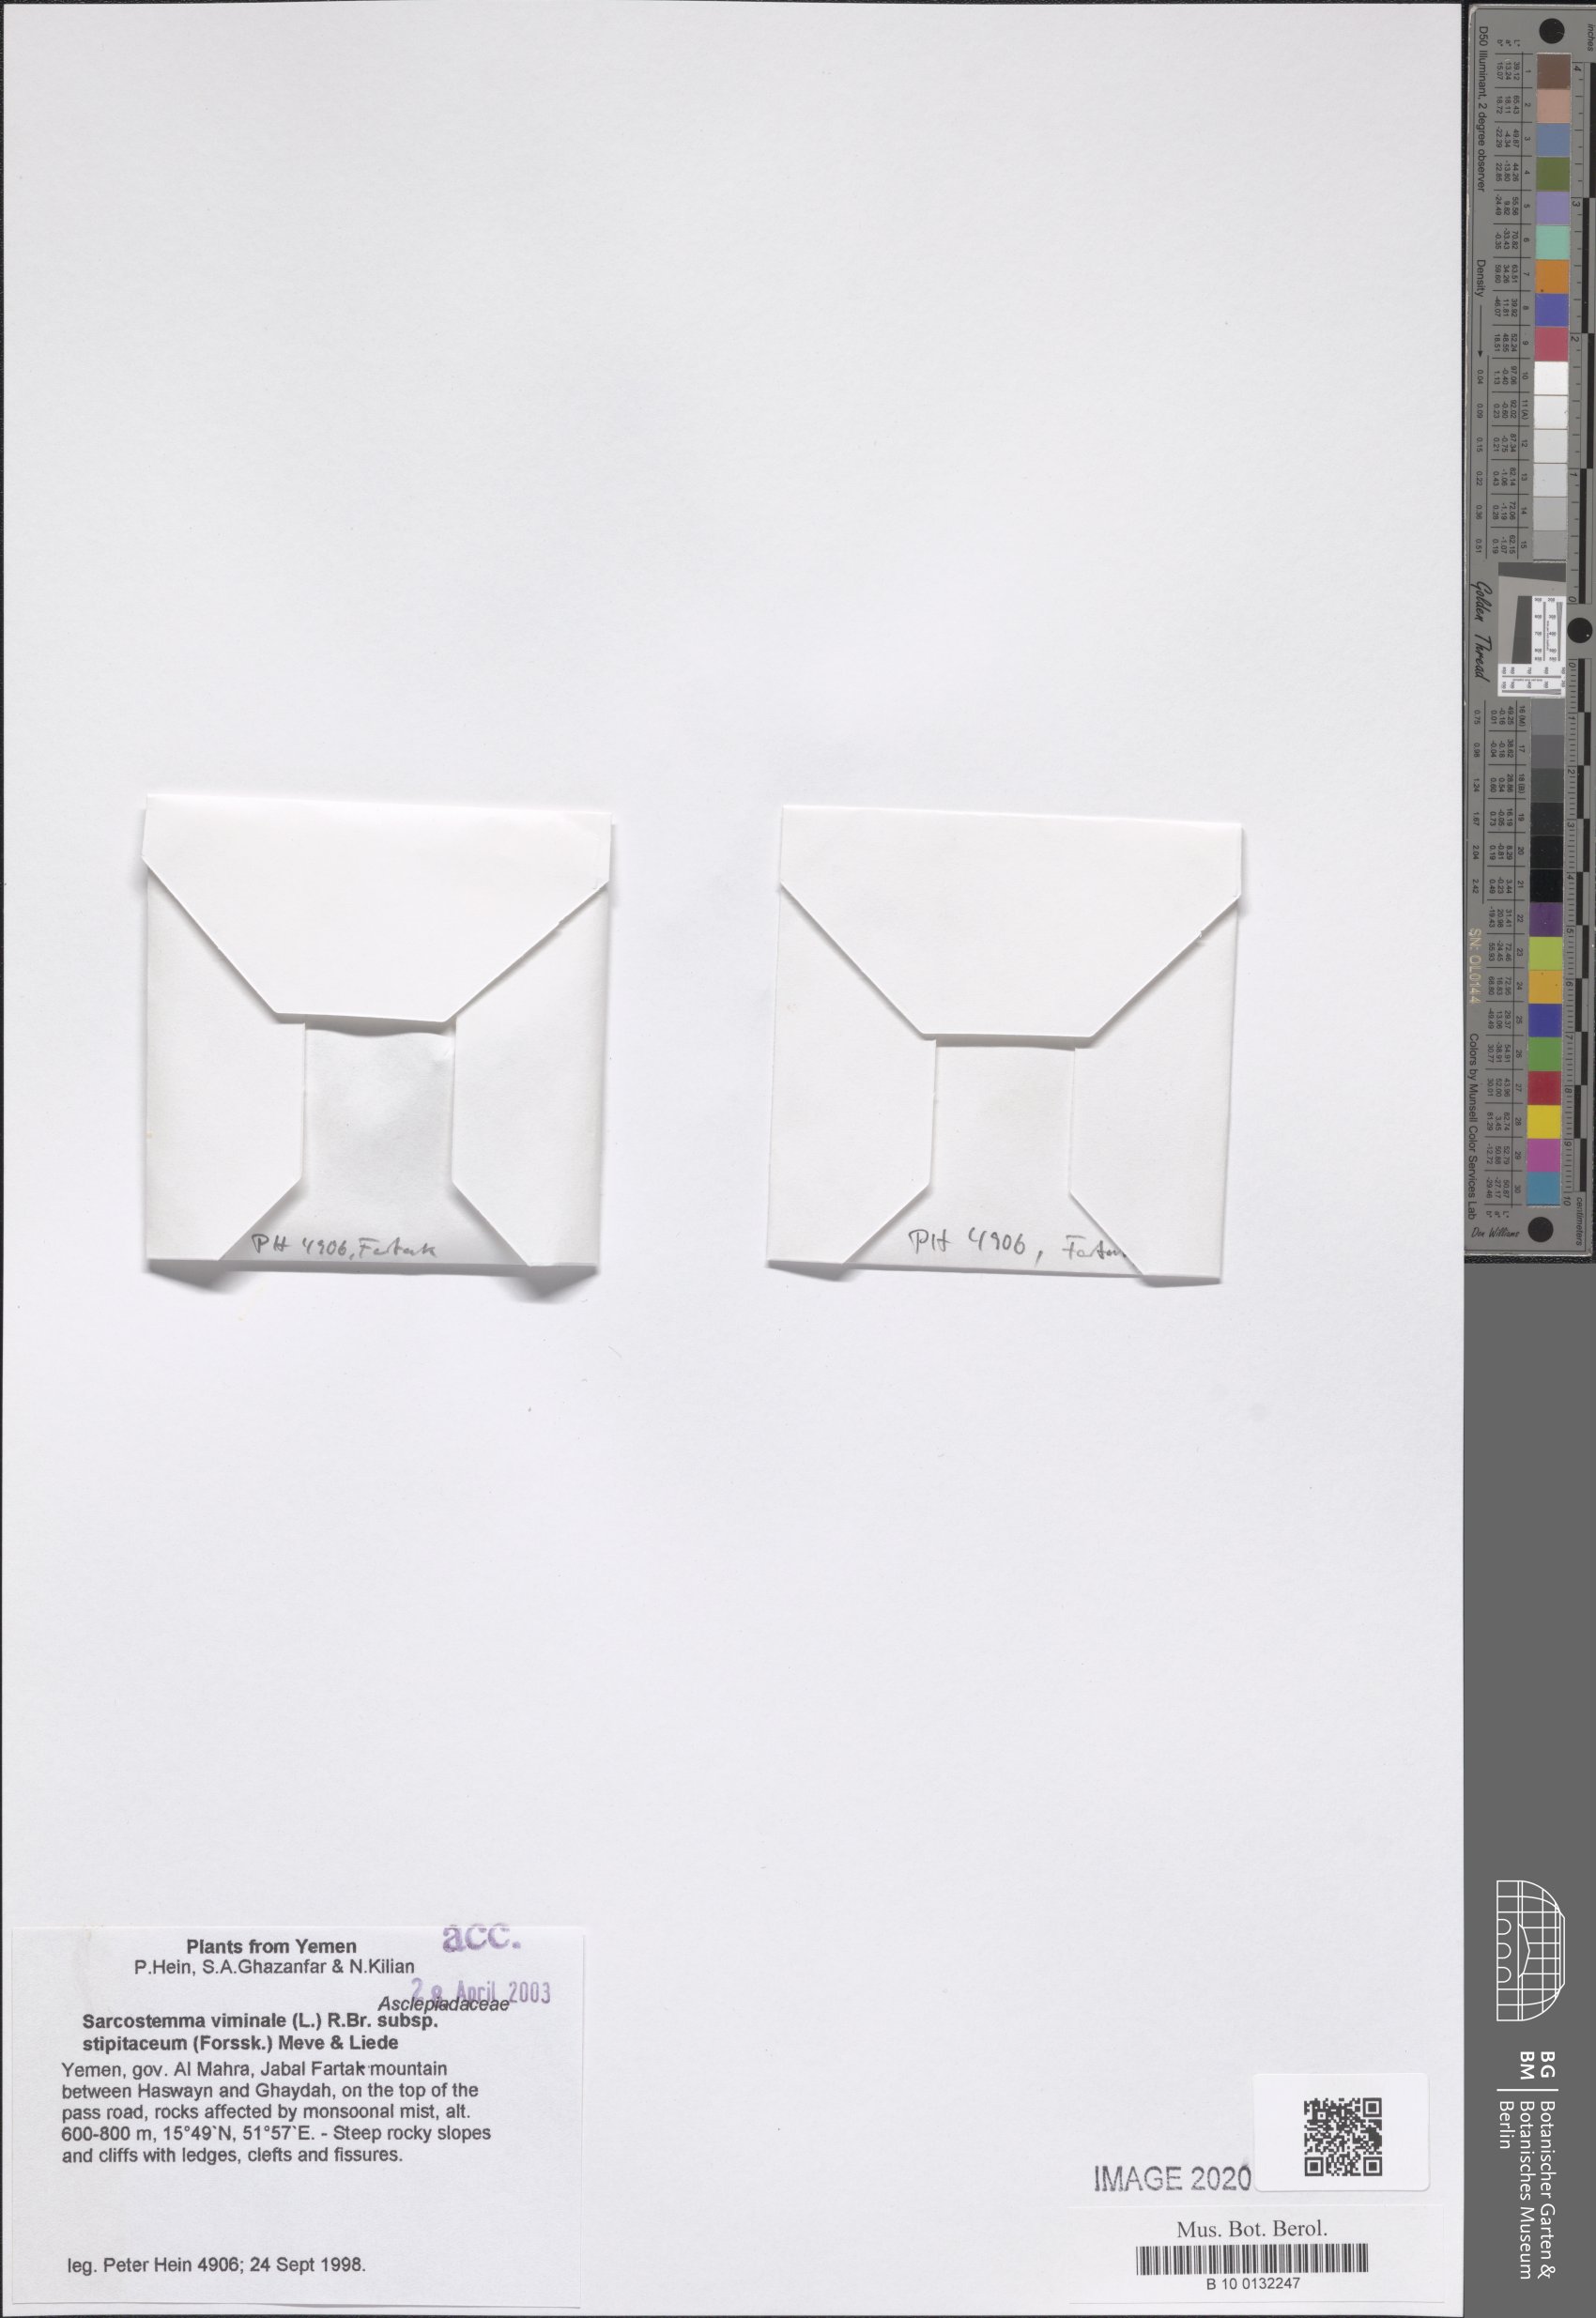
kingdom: Plantae
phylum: Tracheophyta
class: Magnoliopsida
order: Gentianales
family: Apocynaceae
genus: Cynanchum
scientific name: Cynanchum viminale
